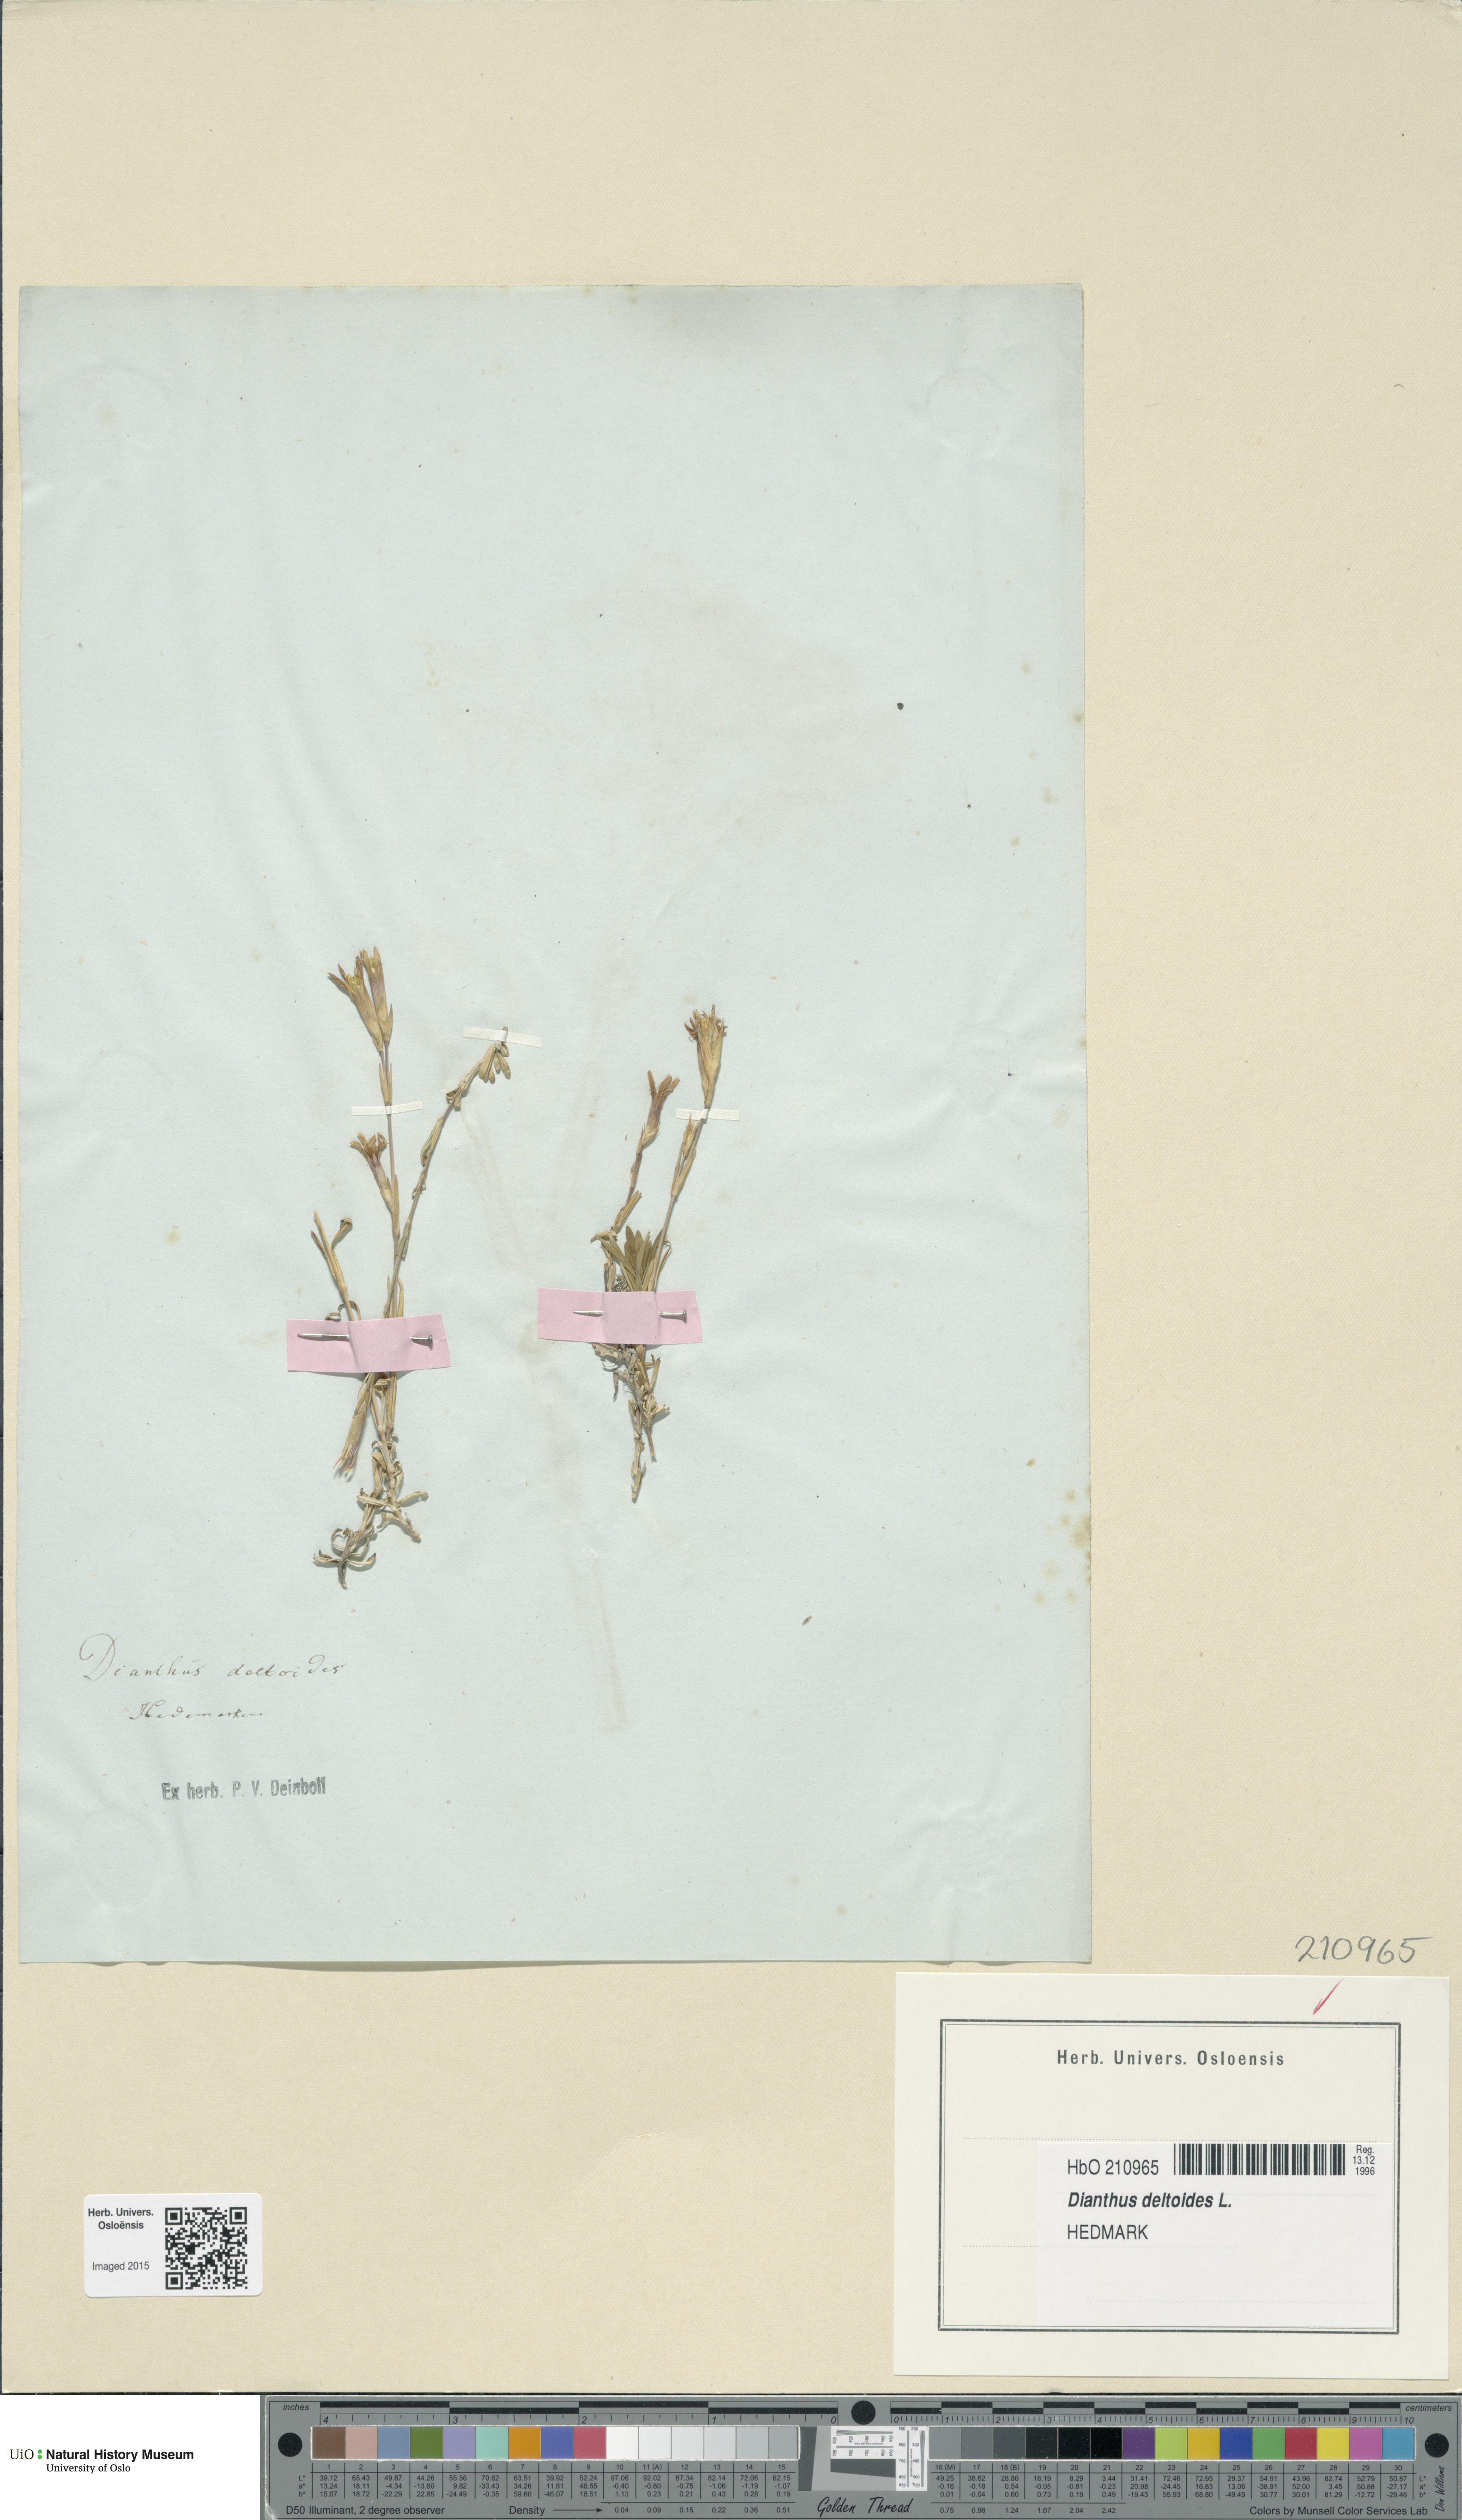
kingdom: Plantae
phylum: Tracheophyta
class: Magnoliopsida
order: Caryophyllales
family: Caryophyllaceae
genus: Dianthus
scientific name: Dianthus deltoides
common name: Maiden pink
